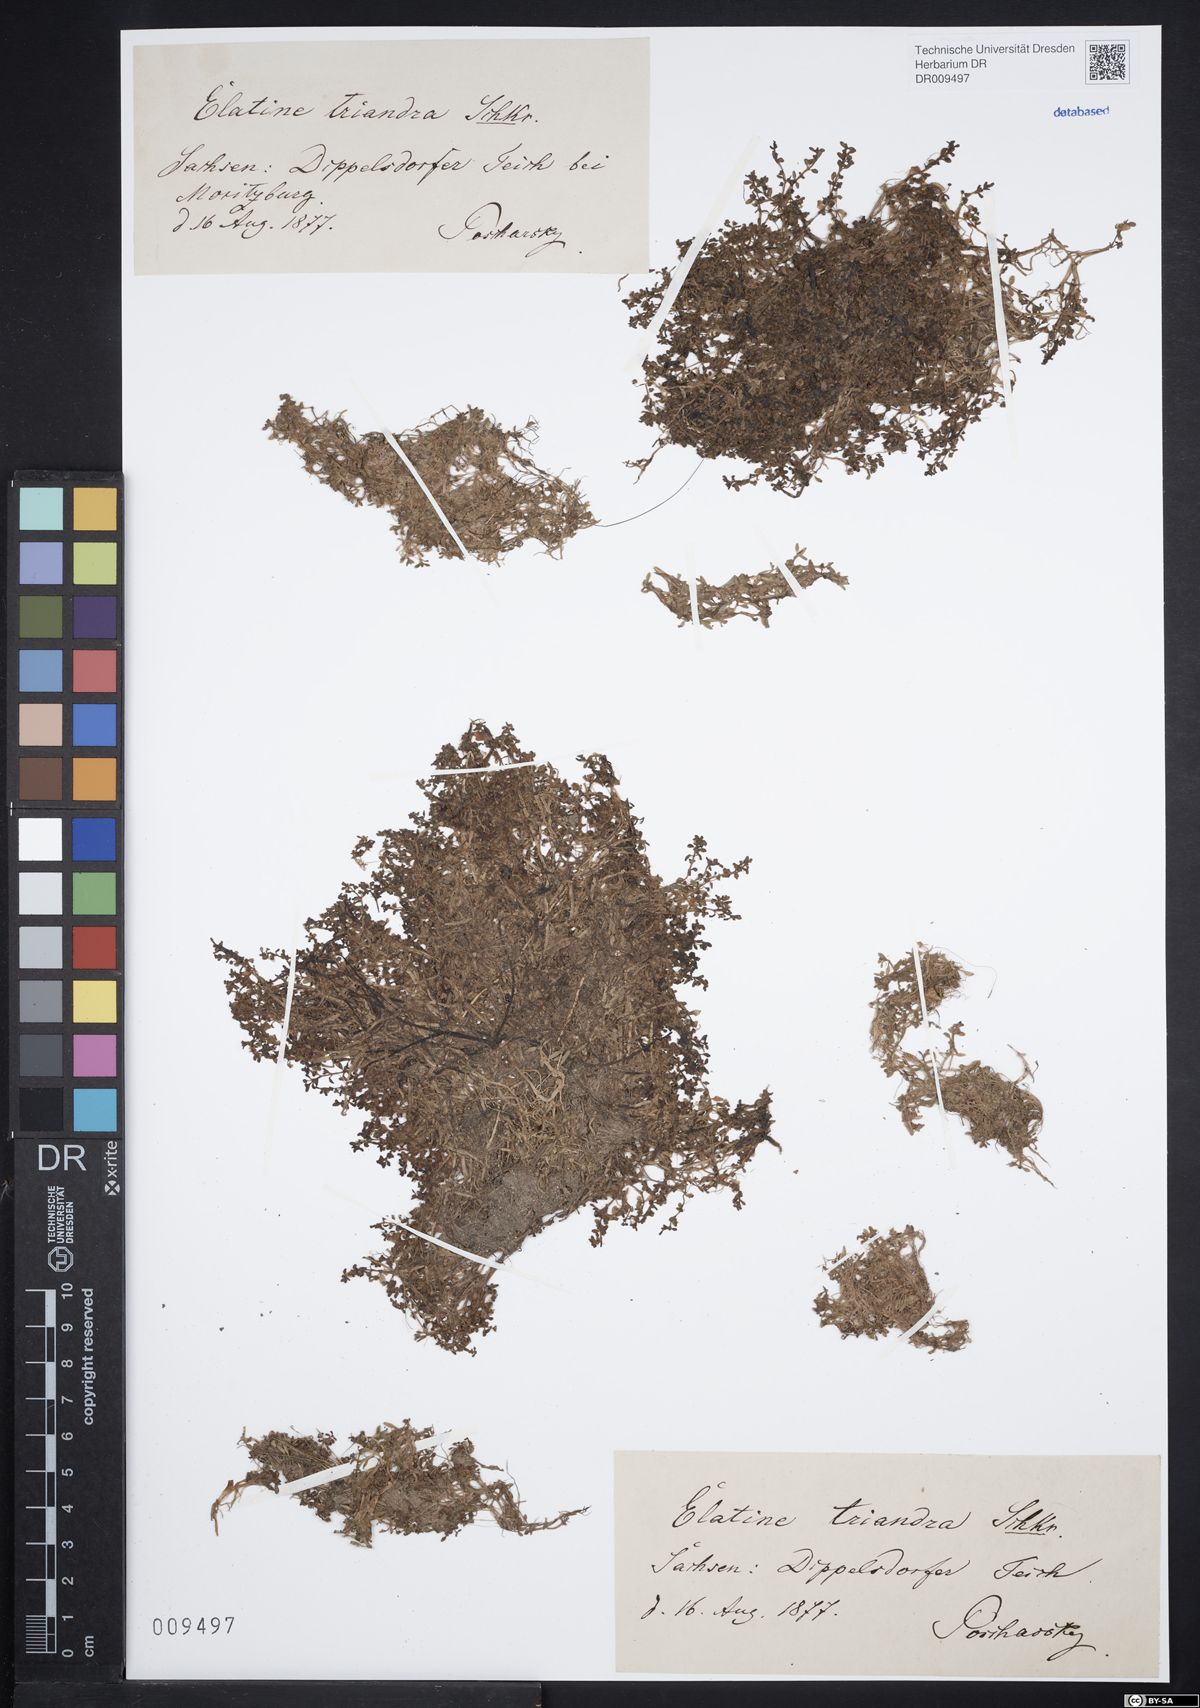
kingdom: Plantae
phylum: Tracheophyta
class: Magnoliopsida
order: Malpighiales
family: Elatinaceae
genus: Elatine
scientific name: Elatine triandra
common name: Three-stamened waterwort
